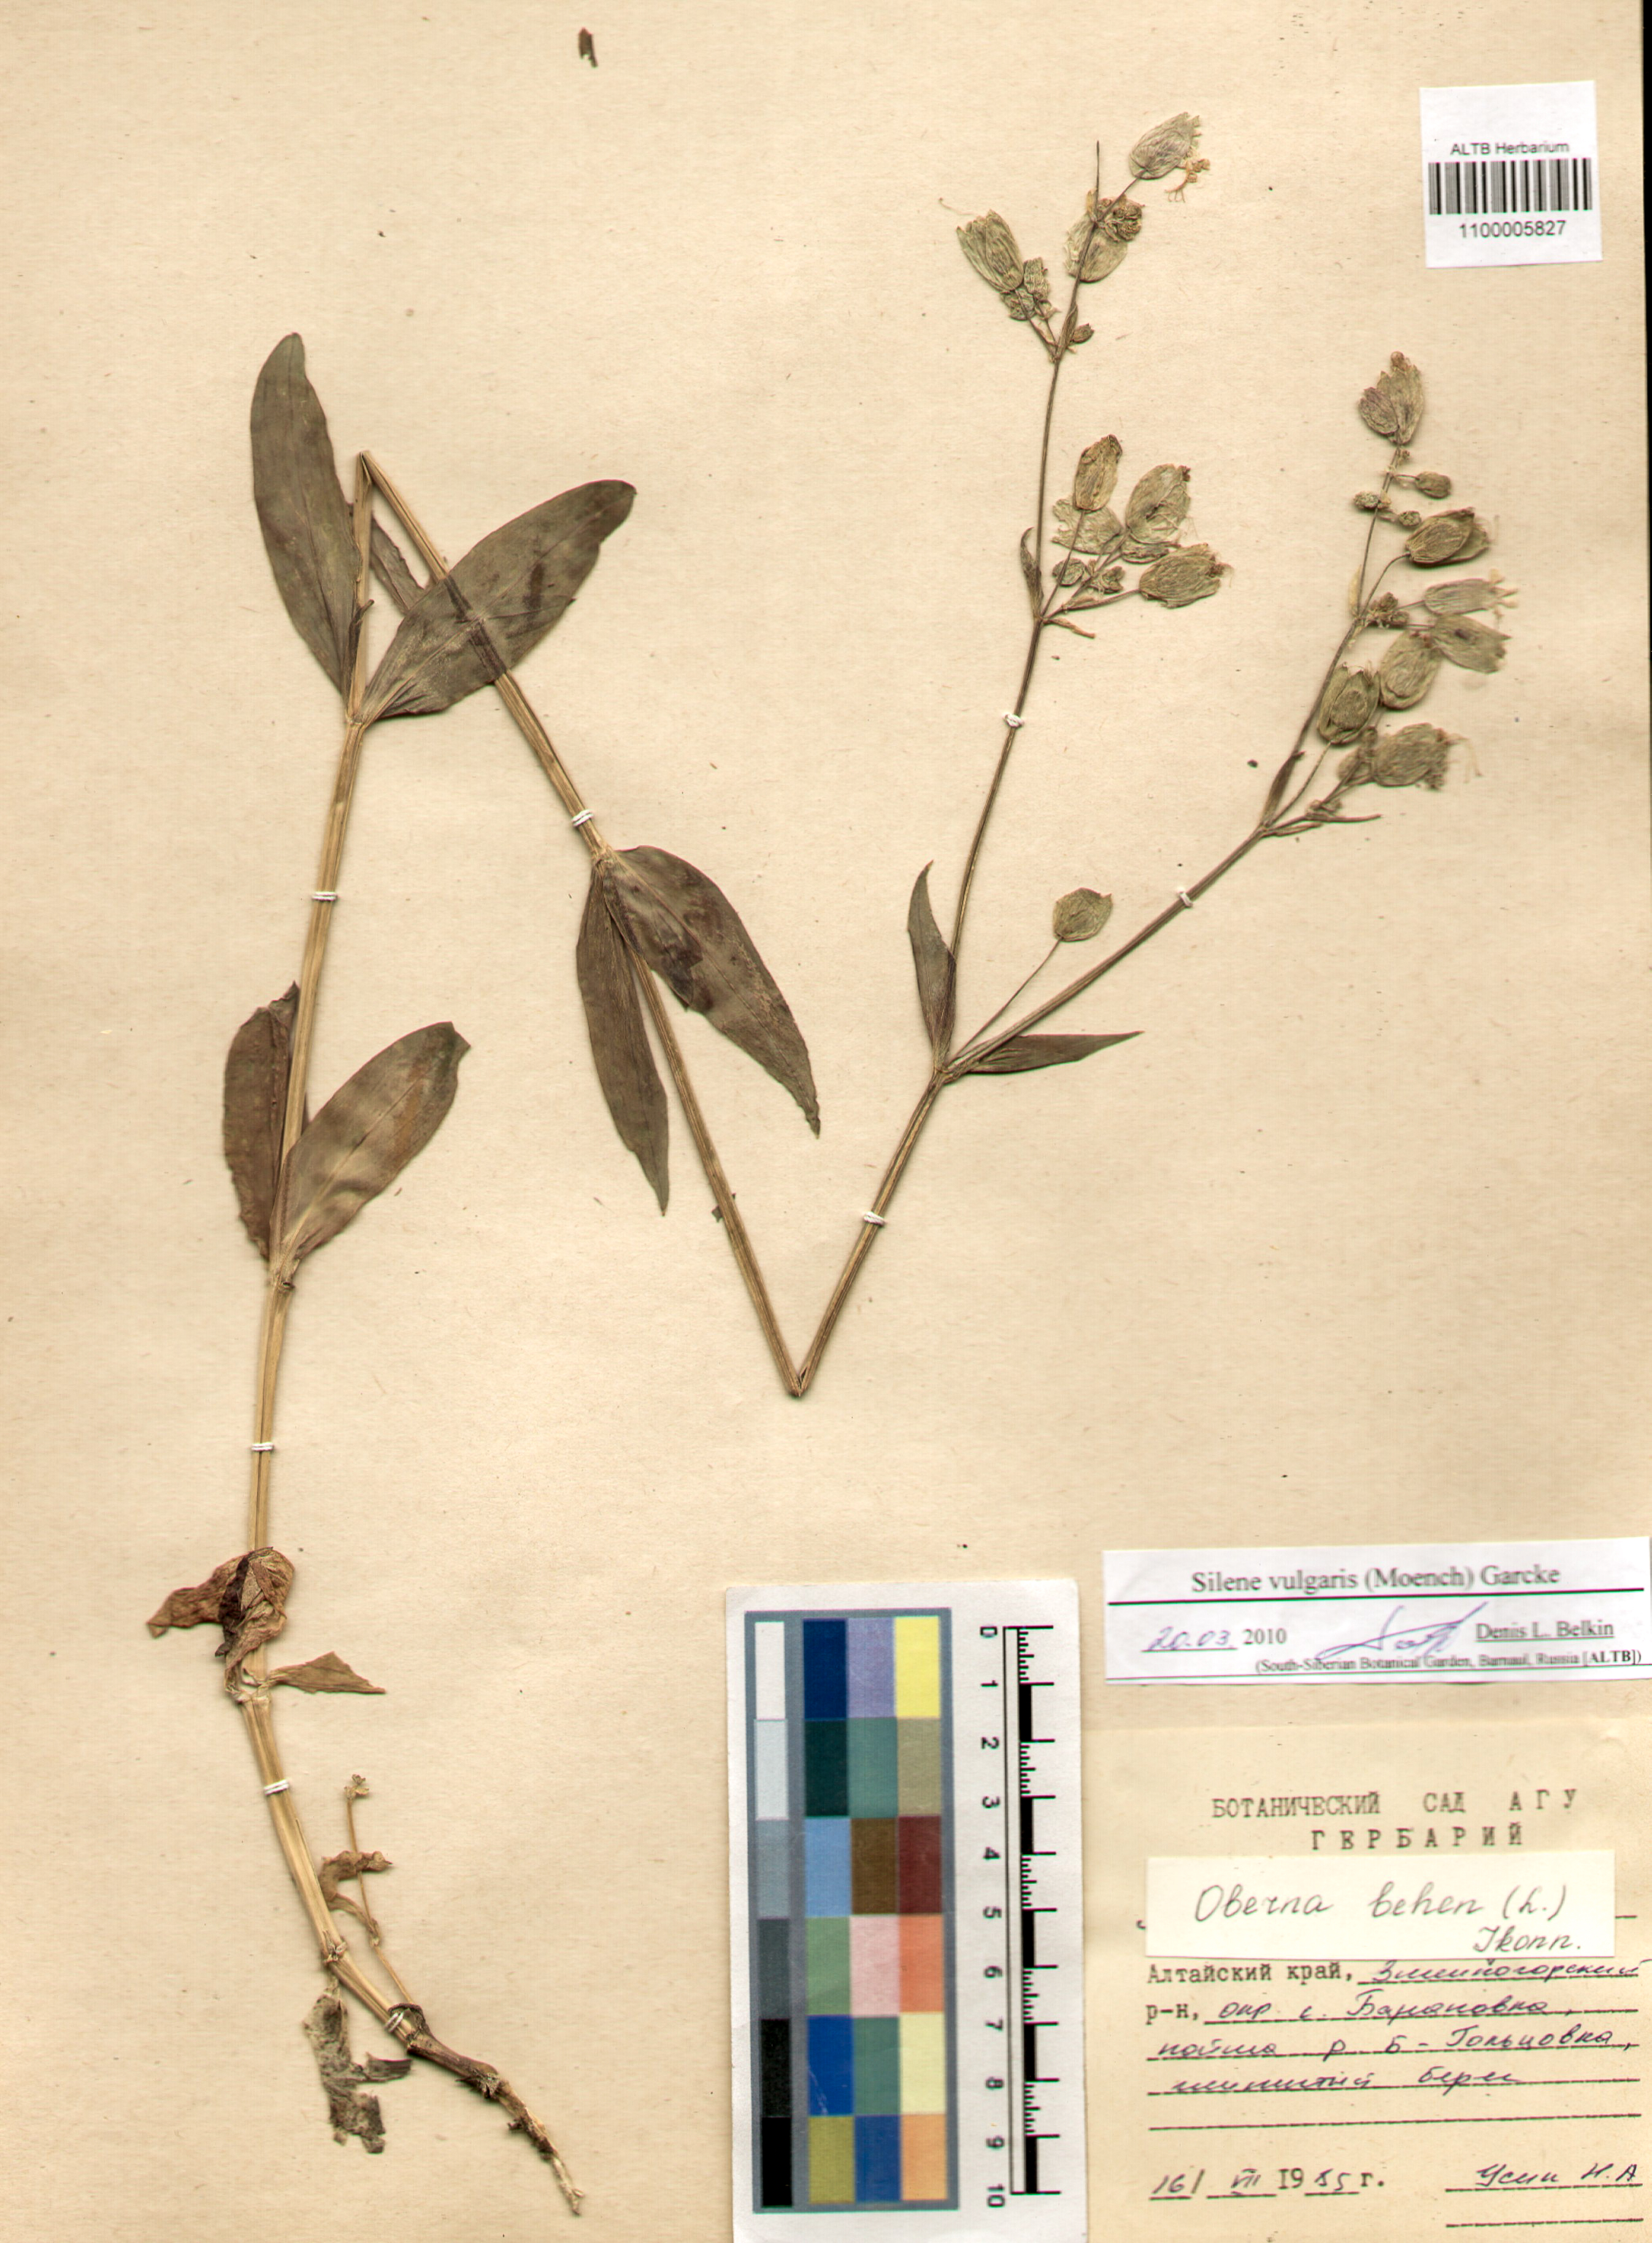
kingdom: Plantae
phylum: Tracheophyta
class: Magnoliopsida
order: Caryophyllales
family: Caryophyllaceae
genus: Silene
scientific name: Silene vulgaris
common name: Bladder campion
